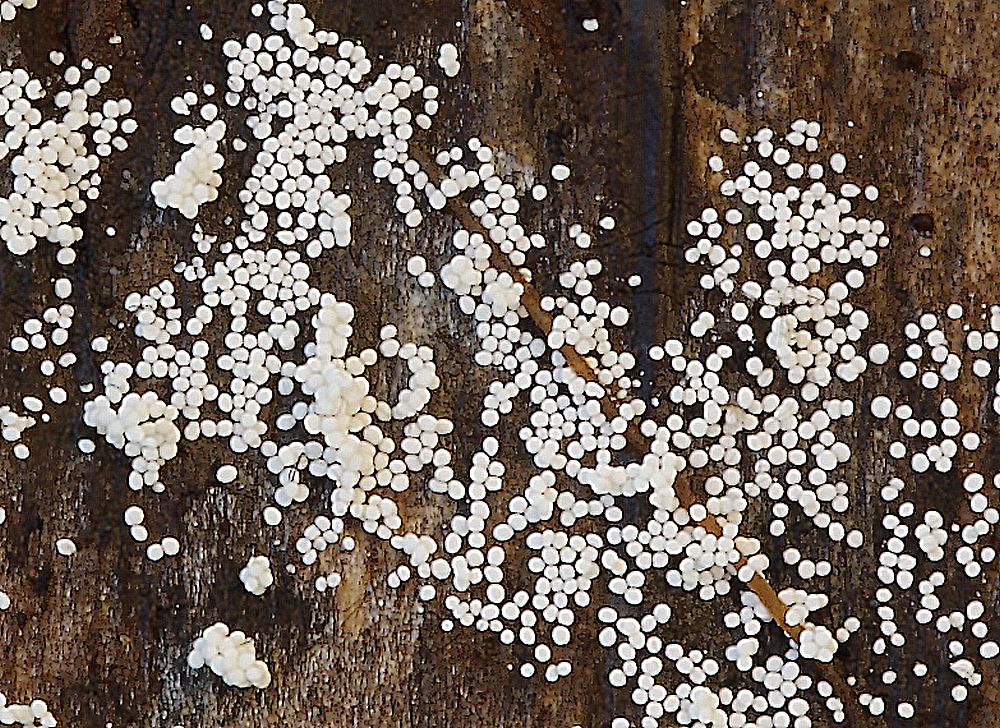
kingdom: Fungi
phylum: Basidiomycota
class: Agaricomycetes
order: Polyporales
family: Meruliaceae
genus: Bulbillomyces
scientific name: Bulbillomyces farinosus
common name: æg-kalkskind
